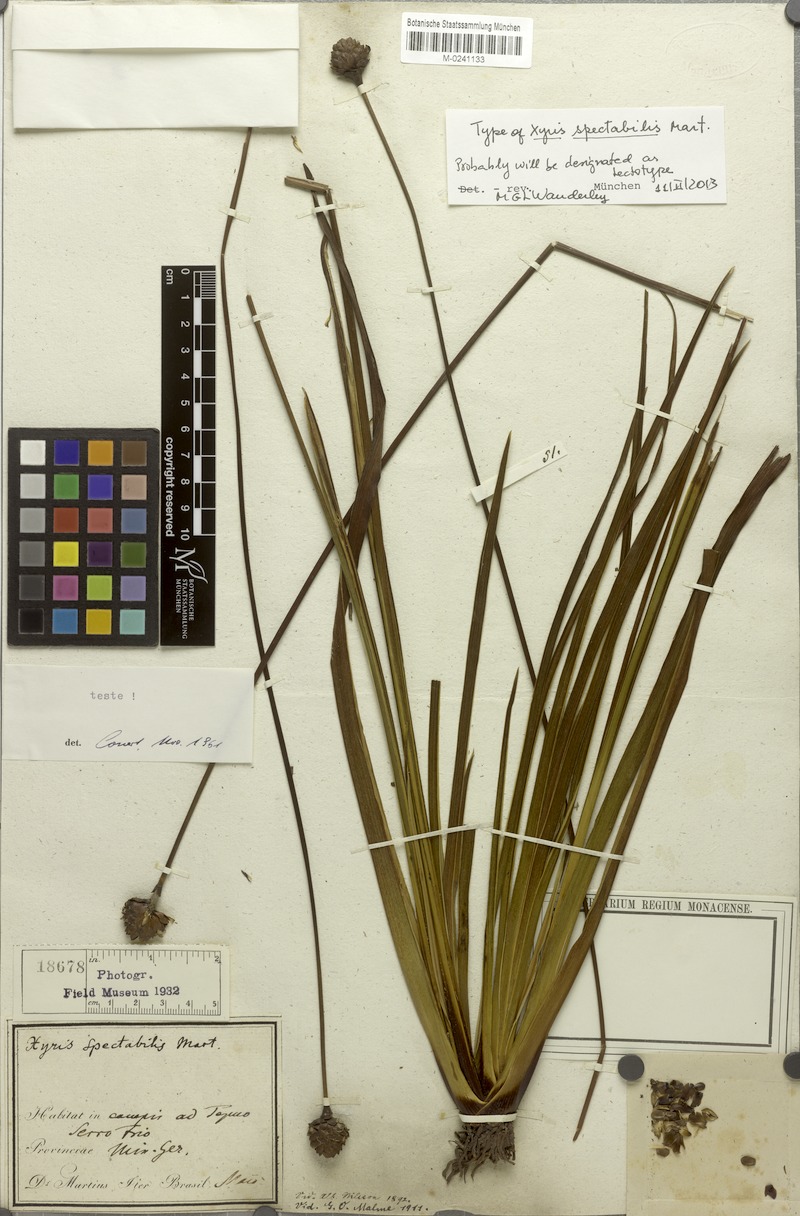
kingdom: Plantae
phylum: Tracheophyta
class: Liliopsida
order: Poales
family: Xyridaceae
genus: Xyris
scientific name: Xyris spectabilis
